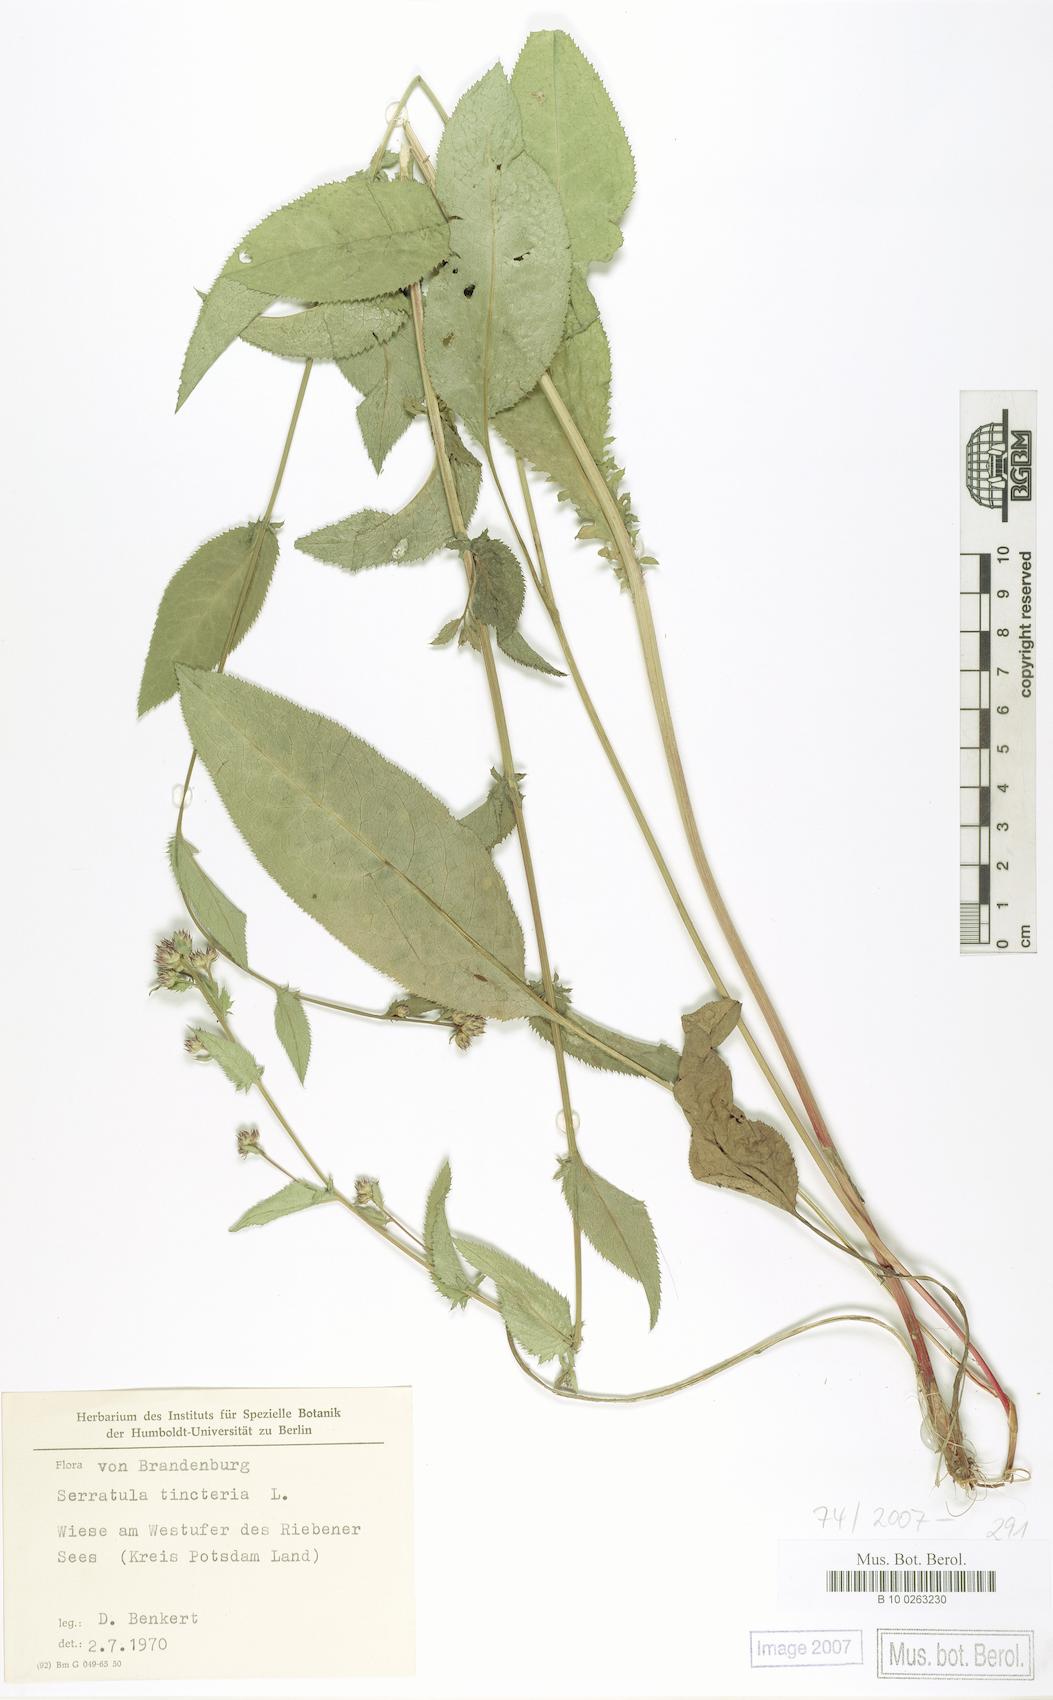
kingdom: Plantae
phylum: Tracheophyta
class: Magnoliopsida
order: Asterales
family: Asteraceae
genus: Serratula
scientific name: Serratula tinctoria
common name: Saw-wort
